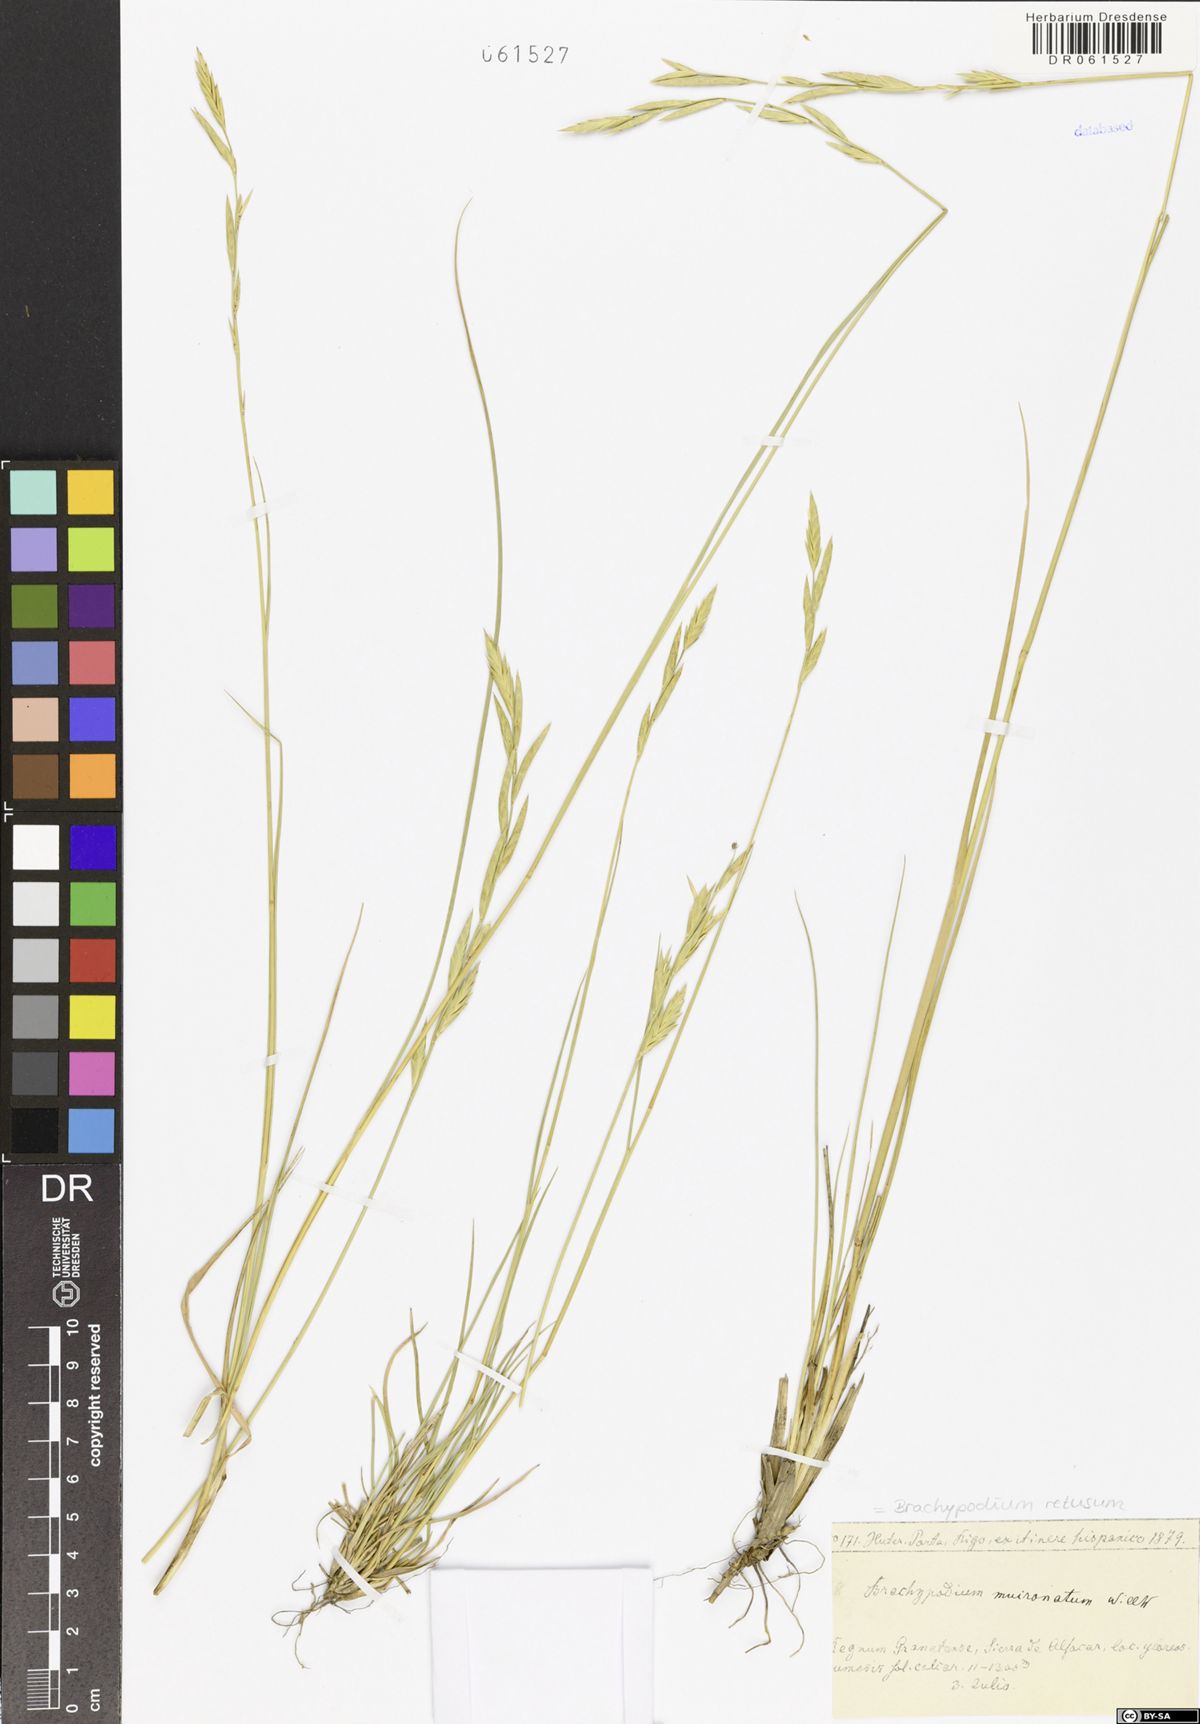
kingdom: Plantae
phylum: Tracheophyta
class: Liliopsida
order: Poales
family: Poaceae
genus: Brachypodium
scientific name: Brachypodium retusum
